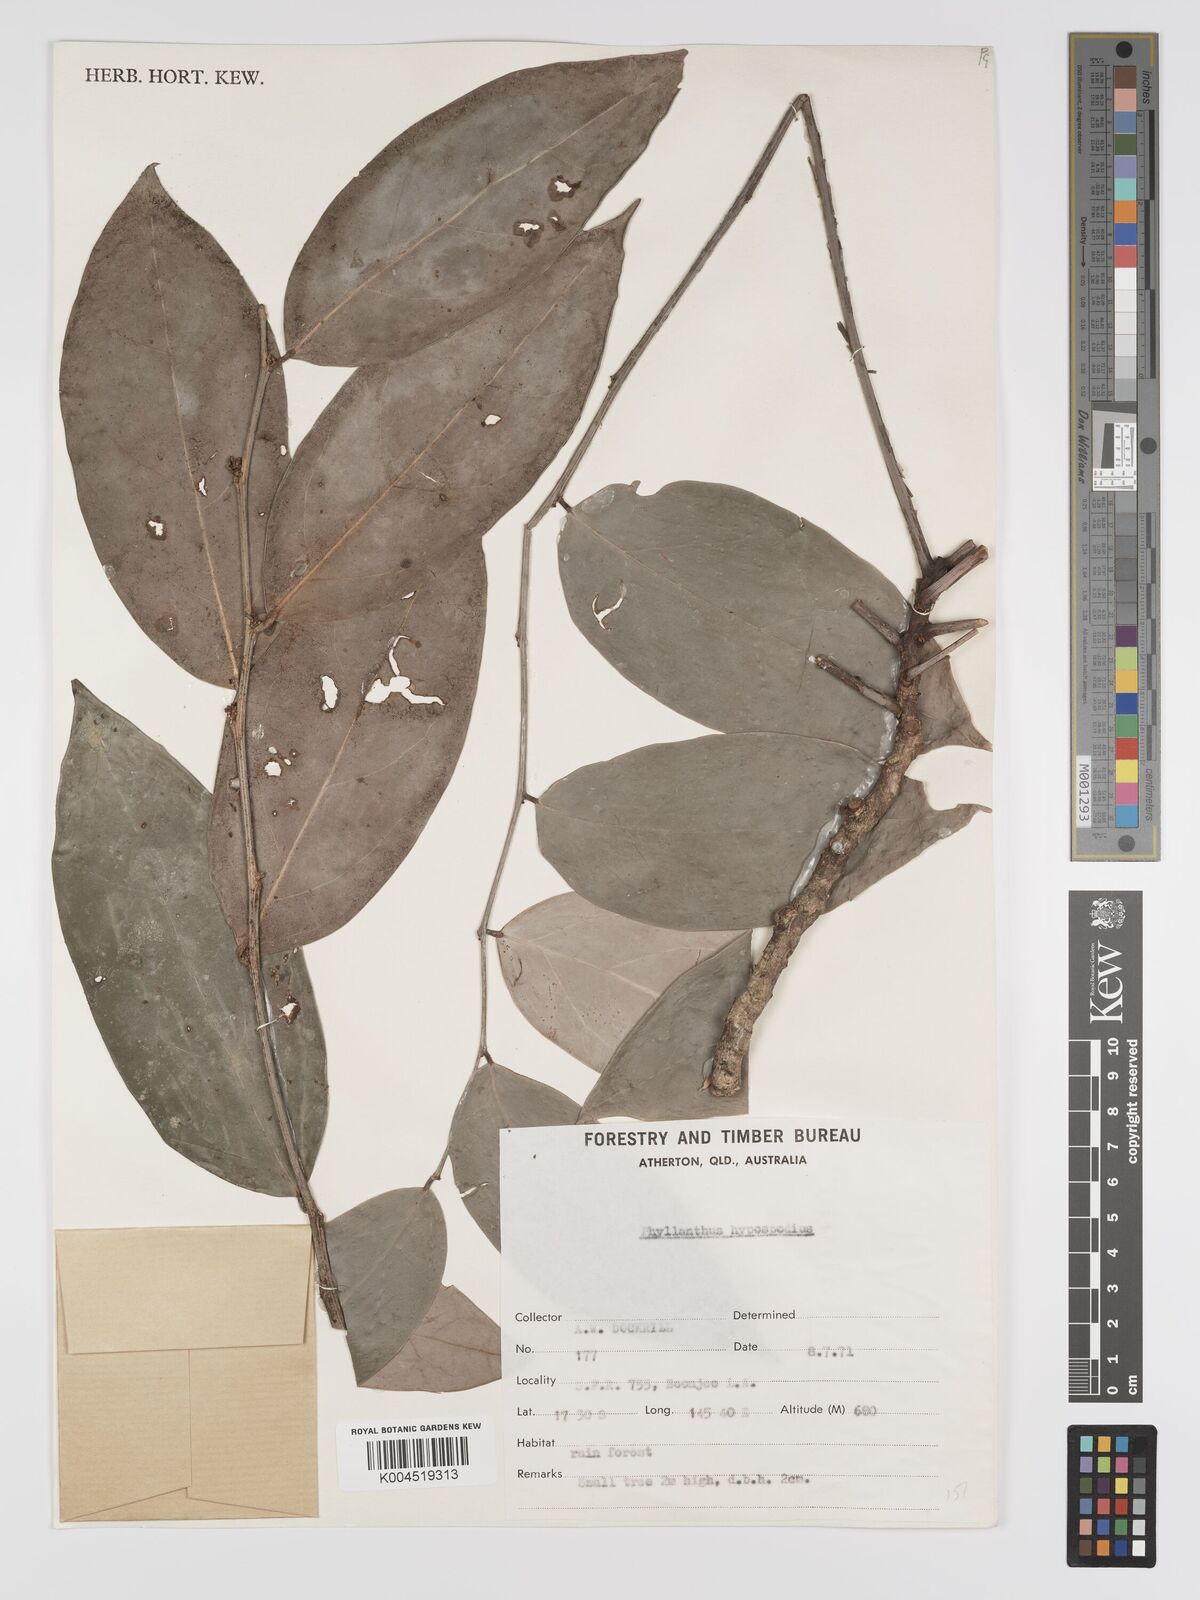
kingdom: Plantae
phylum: Tracheophyta
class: Magnoliopsida
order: Malpighiales
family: Phyllanthaceae
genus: Phyllanthus
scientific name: Phyllanthus hypospodius
